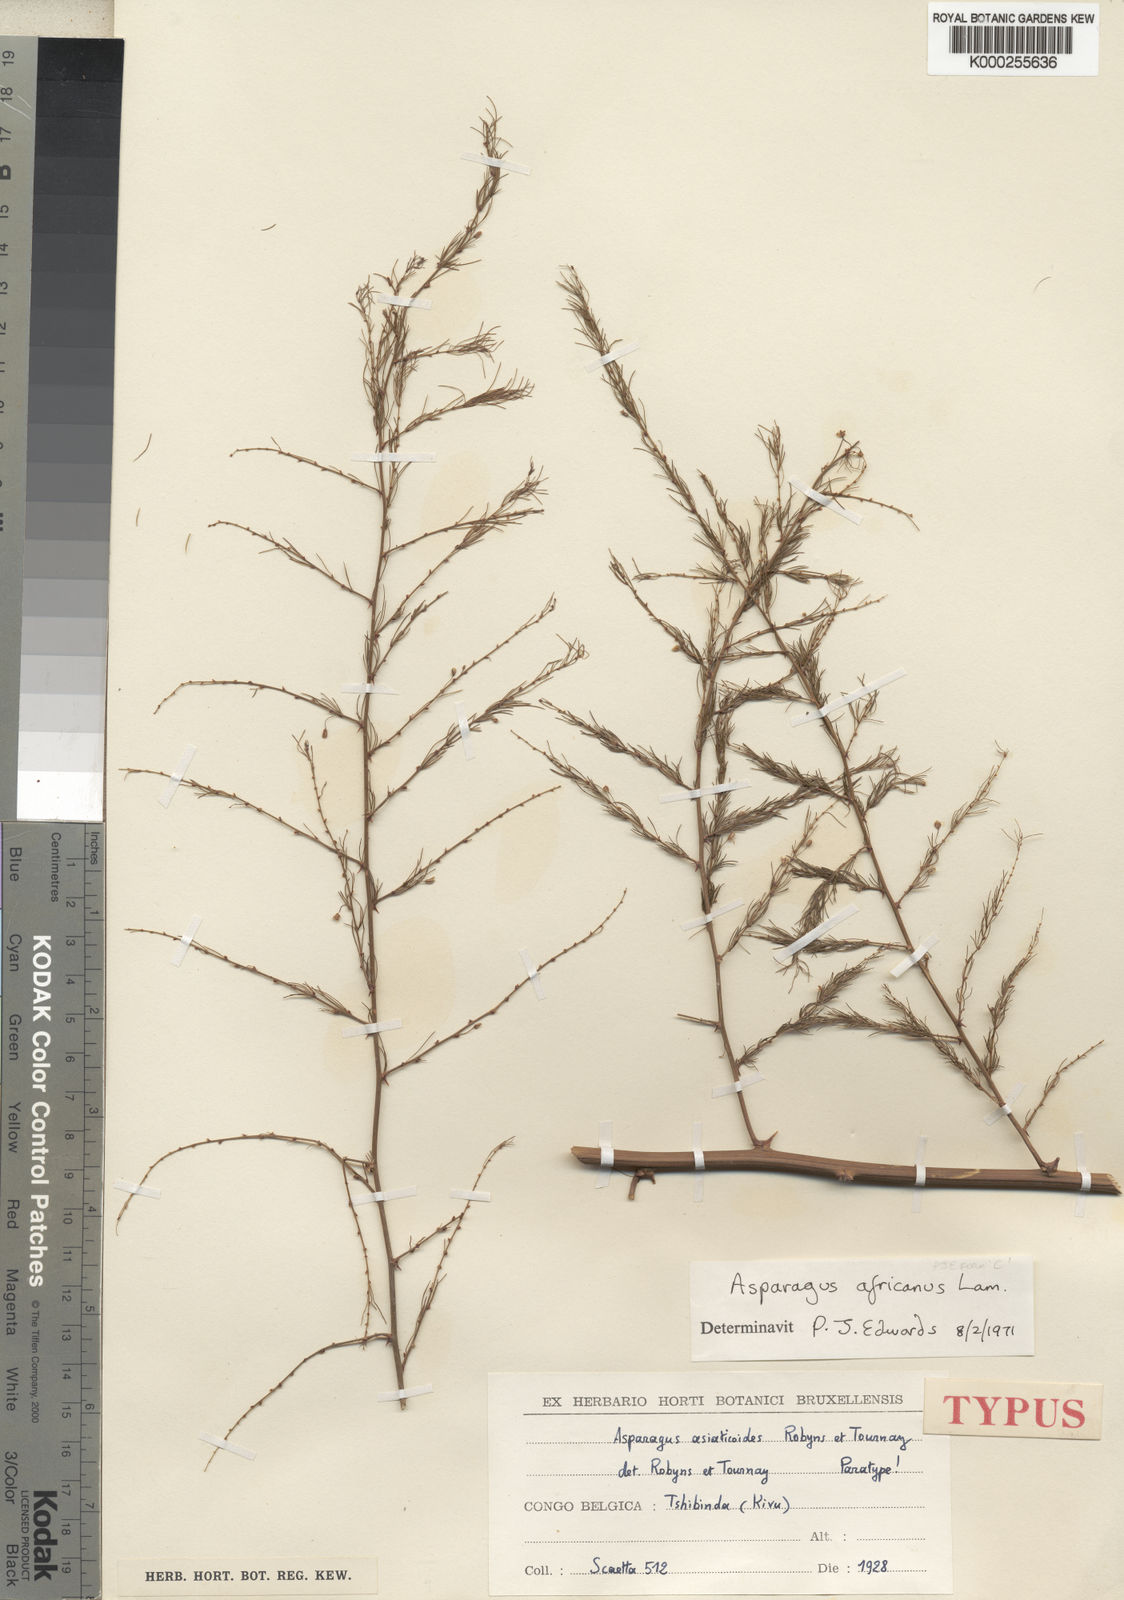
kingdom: Plantae
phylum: Tracheophyta
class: Liliopsida
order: Asparagales
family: Asparagaceae
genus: Asparagus
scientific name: Asparagus africanus
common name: Asparagus-fern
